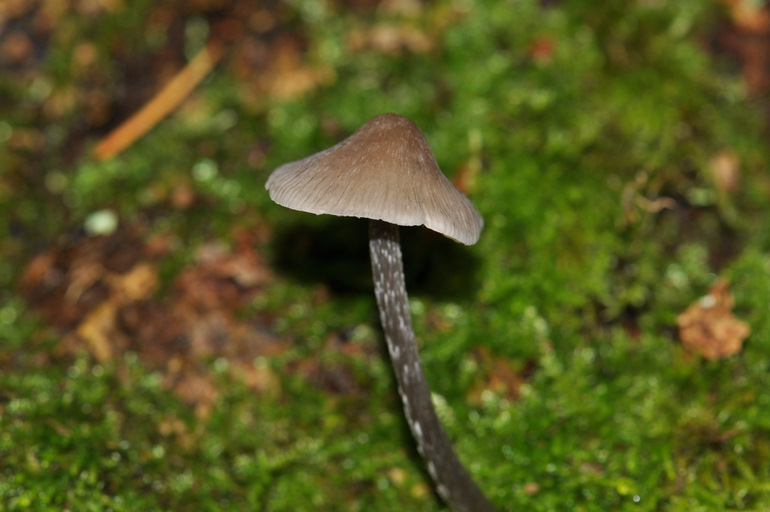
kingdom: Fungi
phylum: Basidiomycota
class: Agaricomycetes
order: Agaricales
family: Mycenaceae
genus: Mycena
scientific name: Mycena polygramma
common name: mangestribet huesvamp
